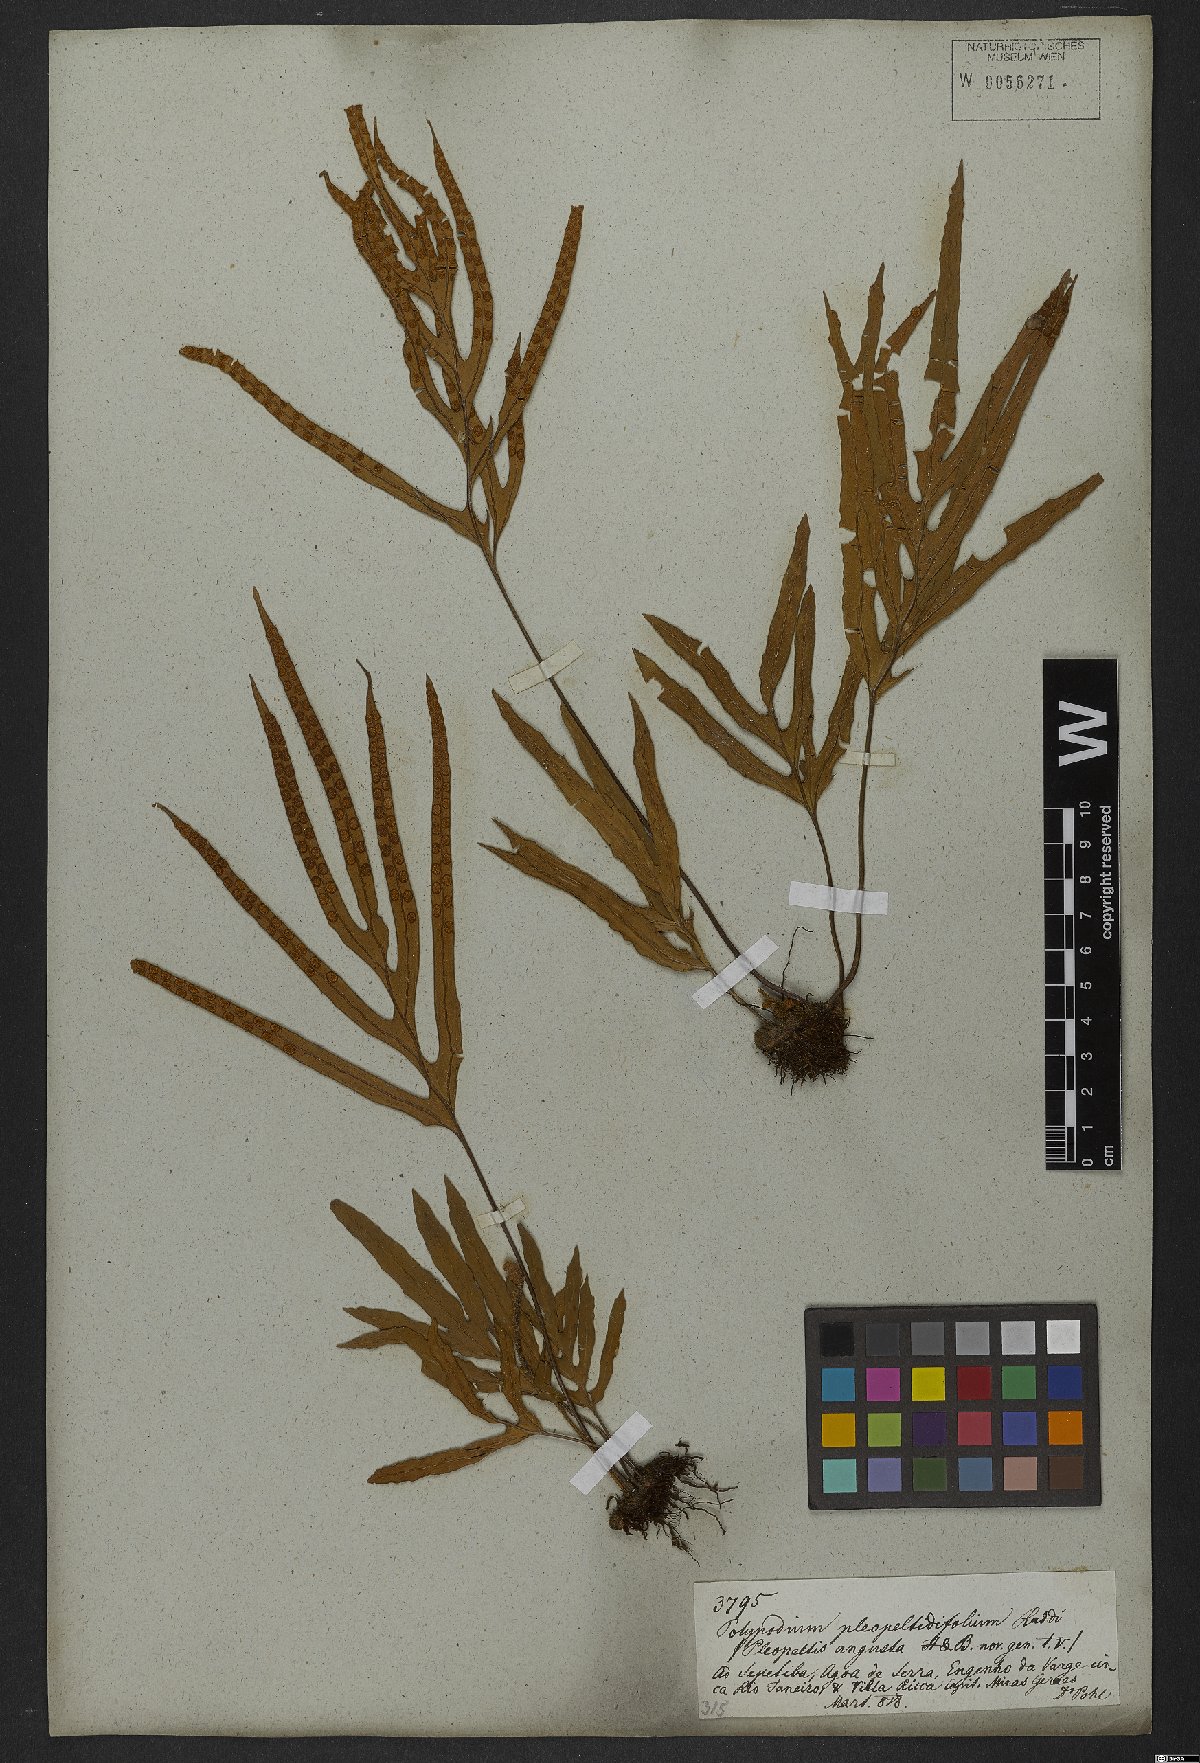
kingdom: Plantae
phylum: Tracheophyta
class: Polypodiopsida
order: Polypodiales
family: Polypodiaceae
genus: Pleopeltis
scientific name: Pleopeltis angusta
